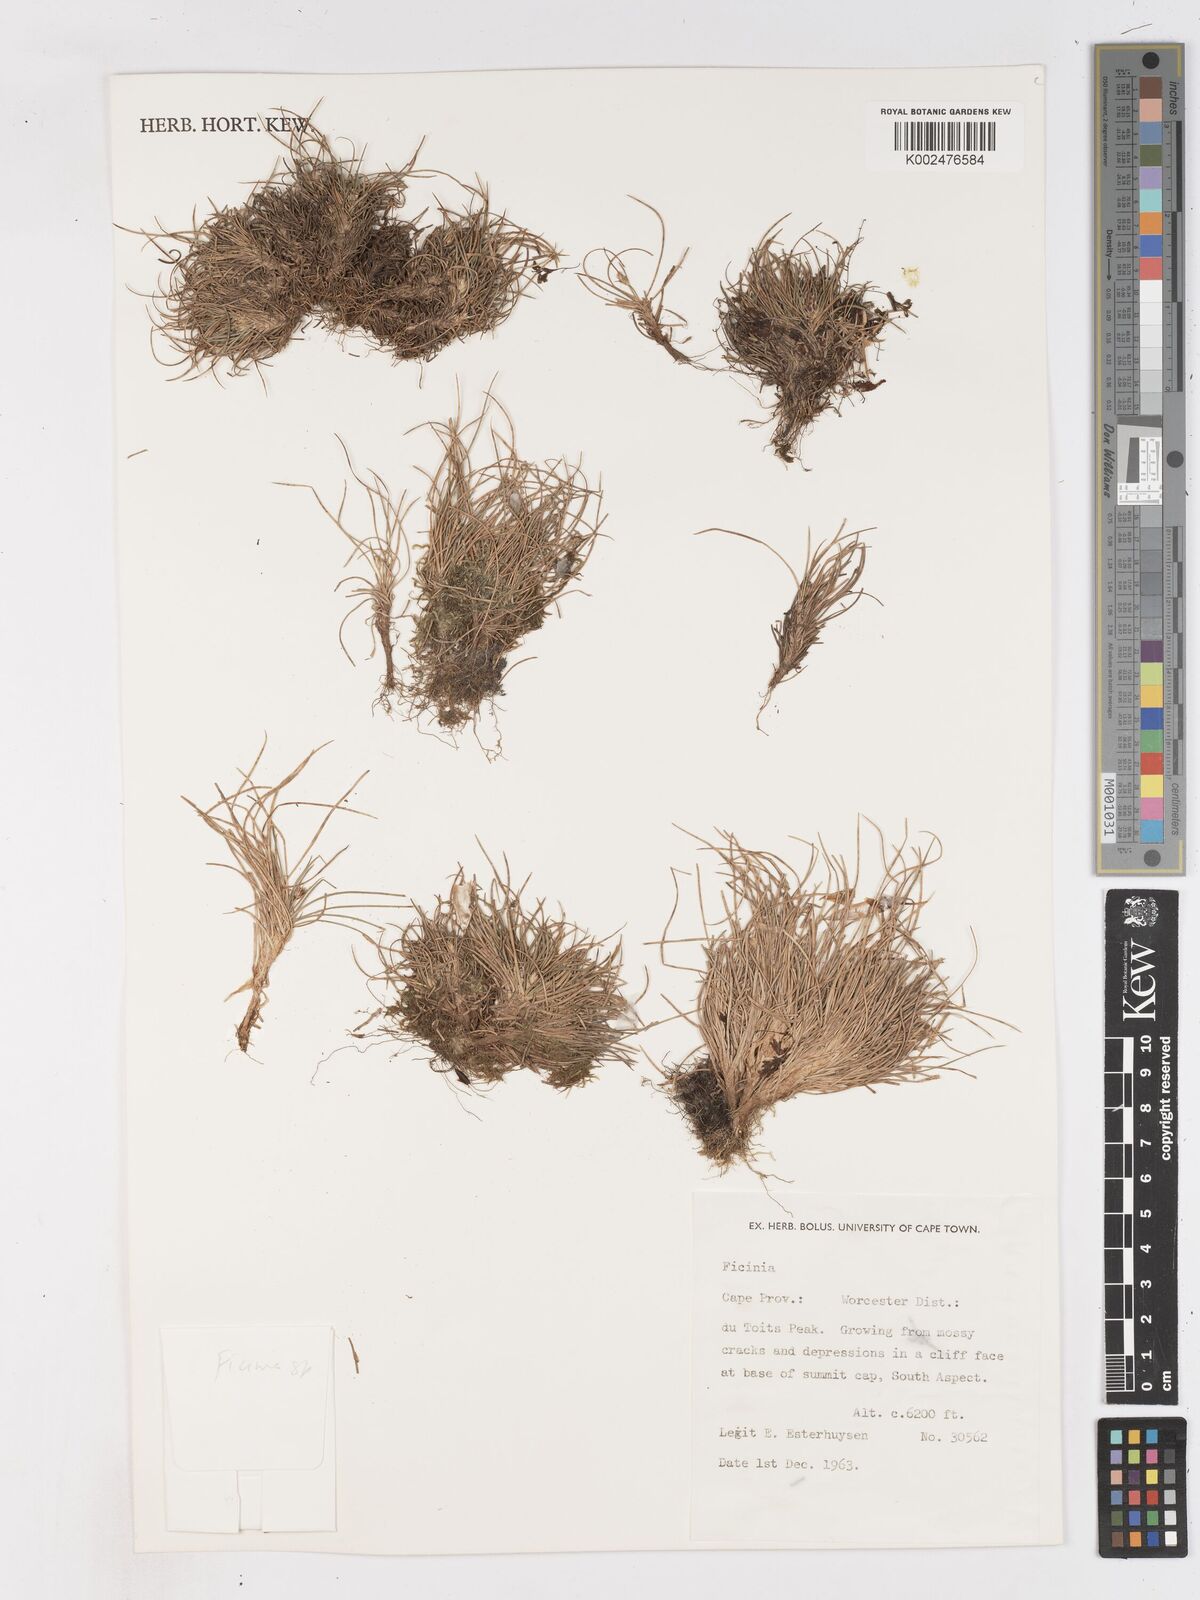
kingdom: Plantae
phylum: Tracheophyta
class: Liliopsida
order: Poales
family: Cyperaceae
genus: Ficinia
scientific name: Ficinia
